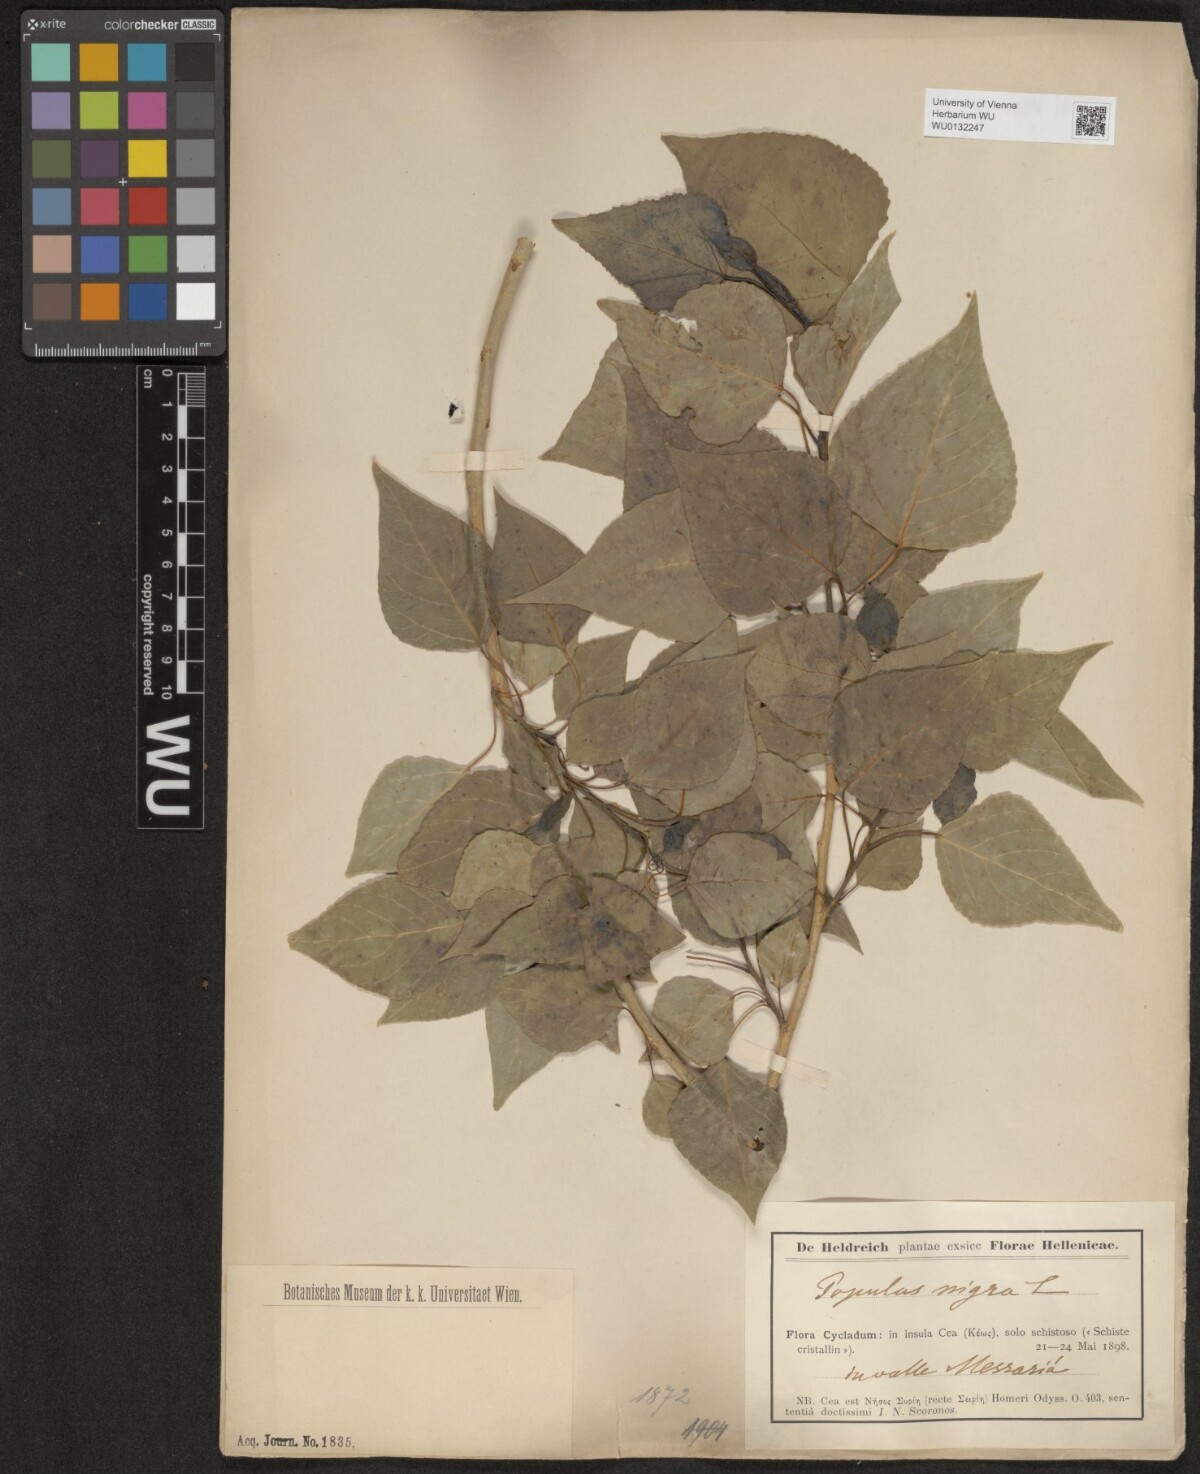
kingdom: Plantae
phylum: Tracheophyta
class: Magnoliopsida
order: Malpighiales
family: Salicaceae
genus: Populus
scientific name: Populus nigra
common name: Black poplar
